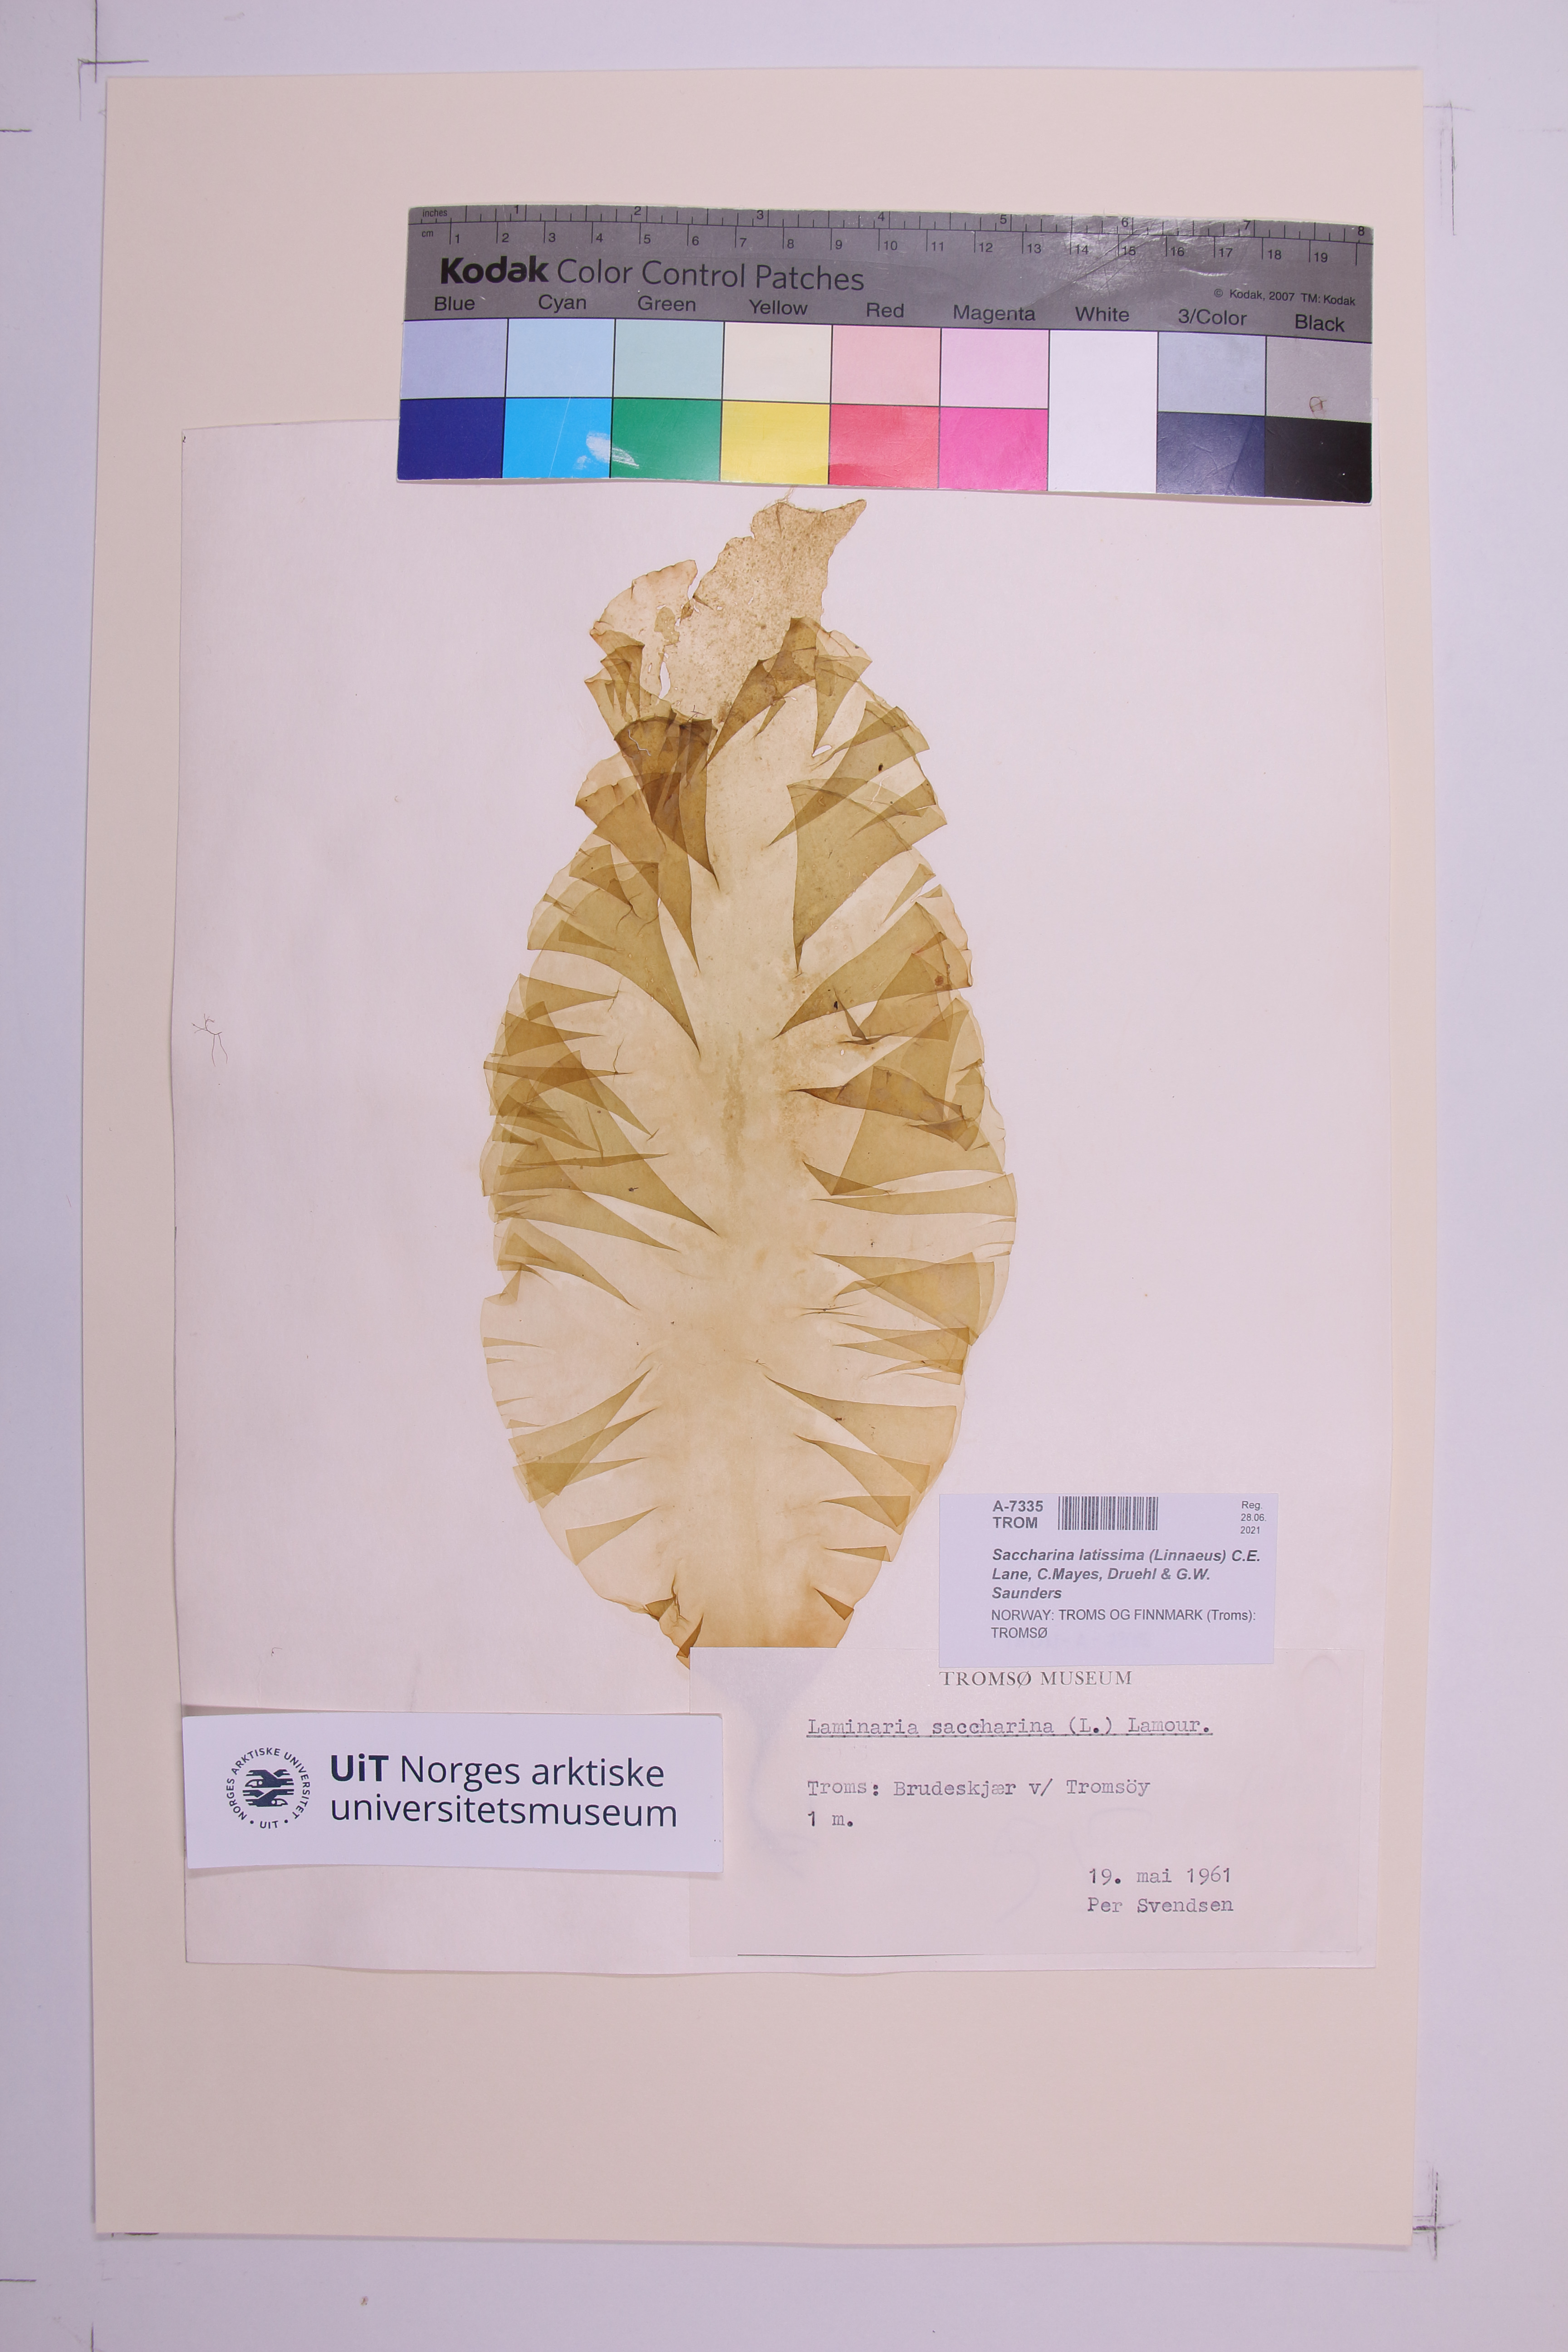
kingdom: Chromista
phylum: Ochrophyta
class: Phaeophyceae
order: Laminariales
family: Laminariaceae
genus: Saccharina
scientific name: Saccharina latissima
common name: Poor man's weather glass
